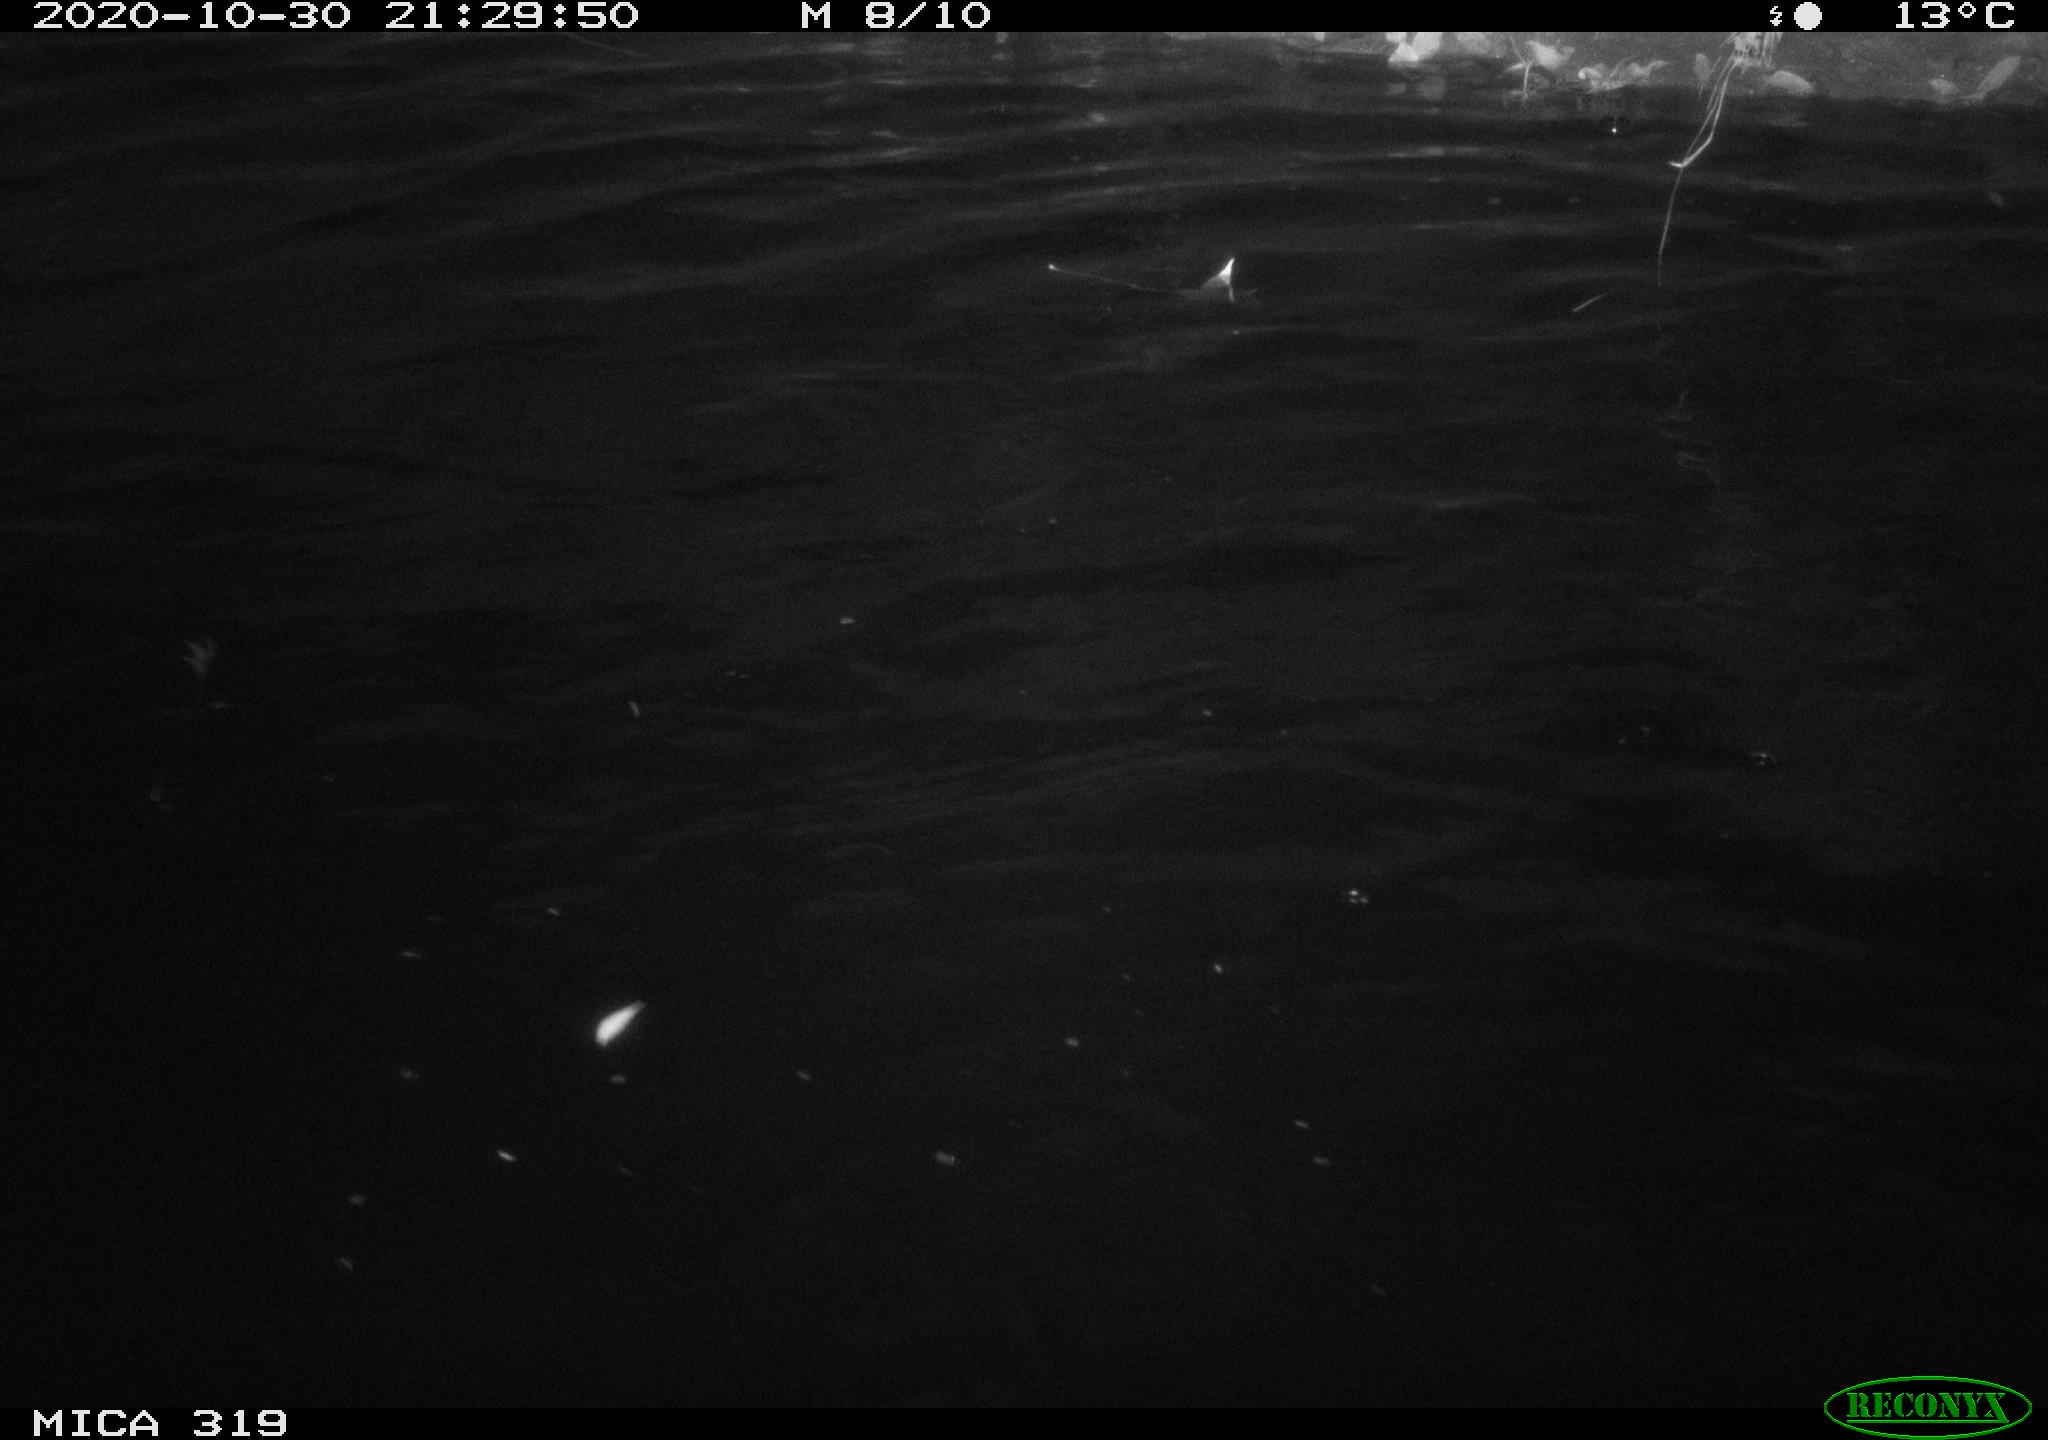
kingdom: Animalia
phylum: Chordata
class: Aves
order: Anseriformes
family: Anatidae
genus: Anas
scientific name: Anas platyrhynchos
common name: Mallard
